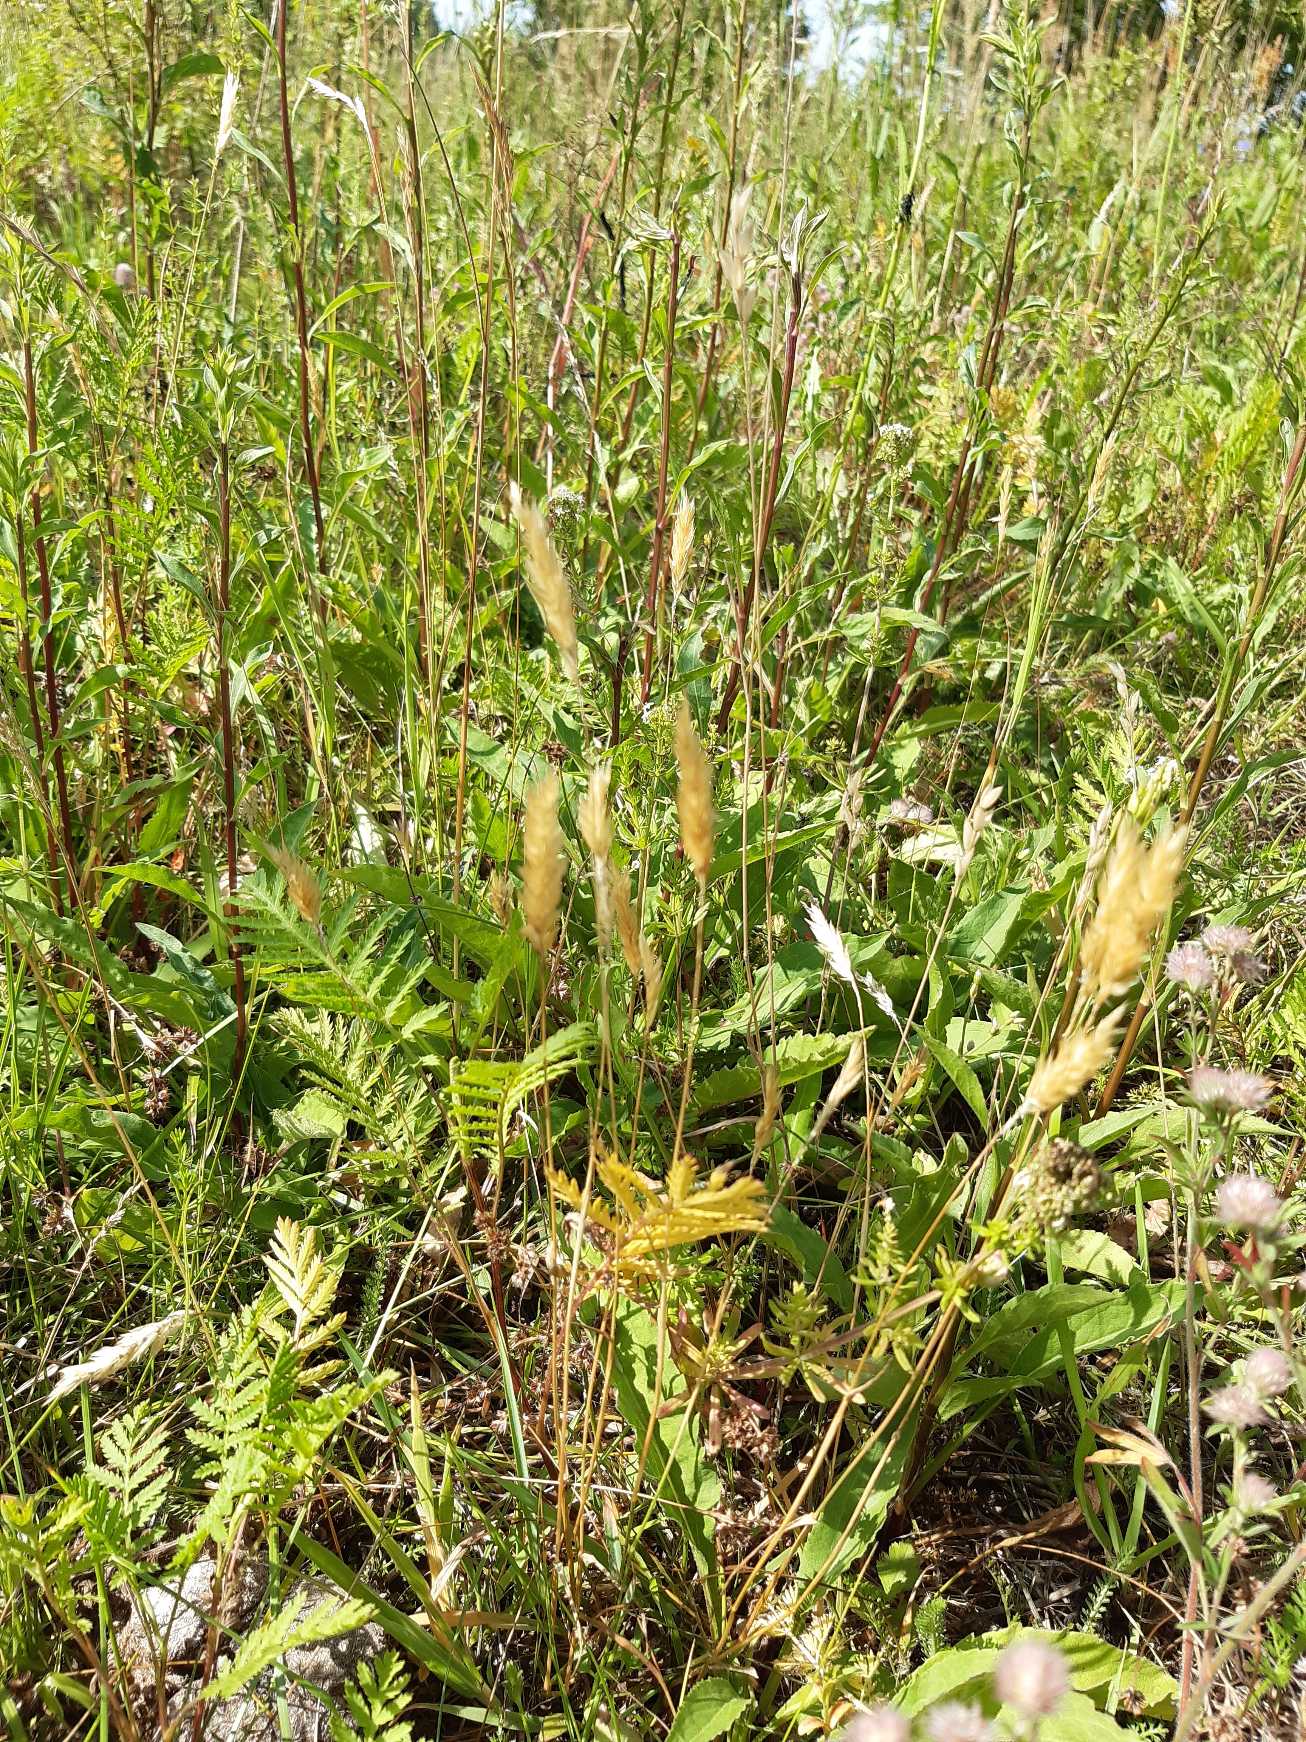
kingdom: Plantae
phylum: Tracheophyta
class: Liliopsida
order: Poales
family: Poaceae
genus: Anthoxanthum
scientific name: Anthoxanthum odoratum
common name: Vellugtende gulaks
